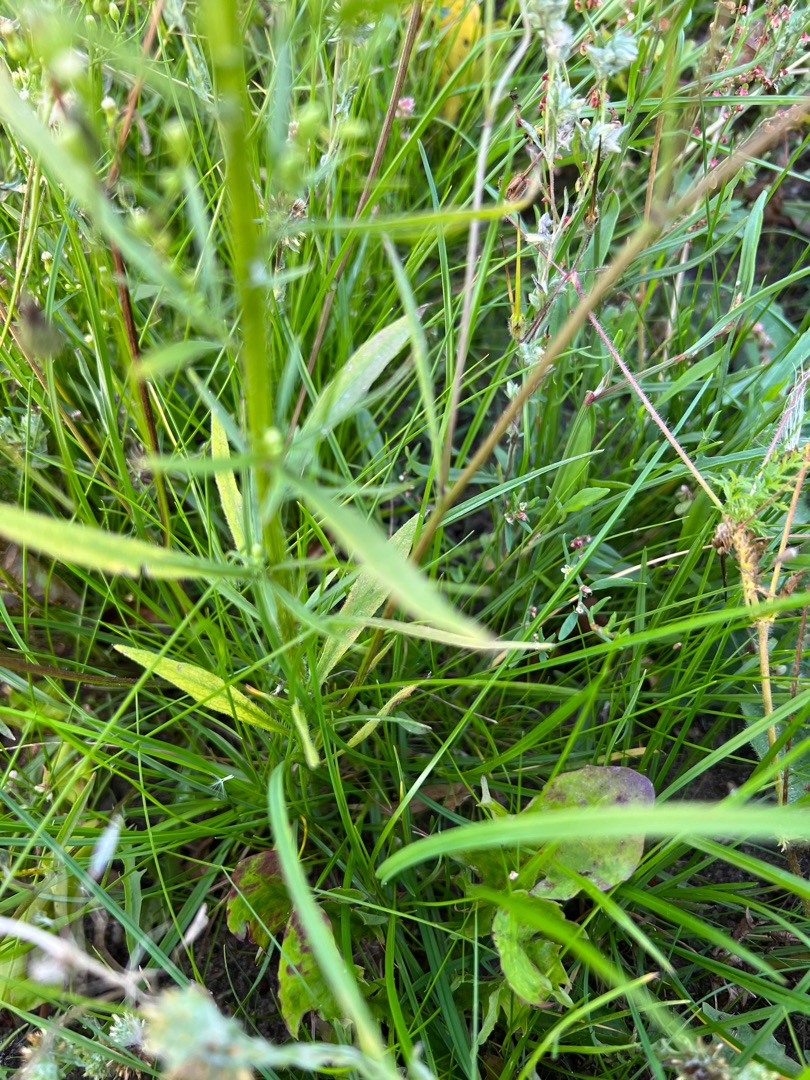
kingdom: Plantae
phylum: Tracheophyta
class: Magnoliopsida
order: Asterales
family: Asteraceae
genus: Erigeron
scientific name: Erigeron canadensis
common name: Kanadisk bakkestjerne
